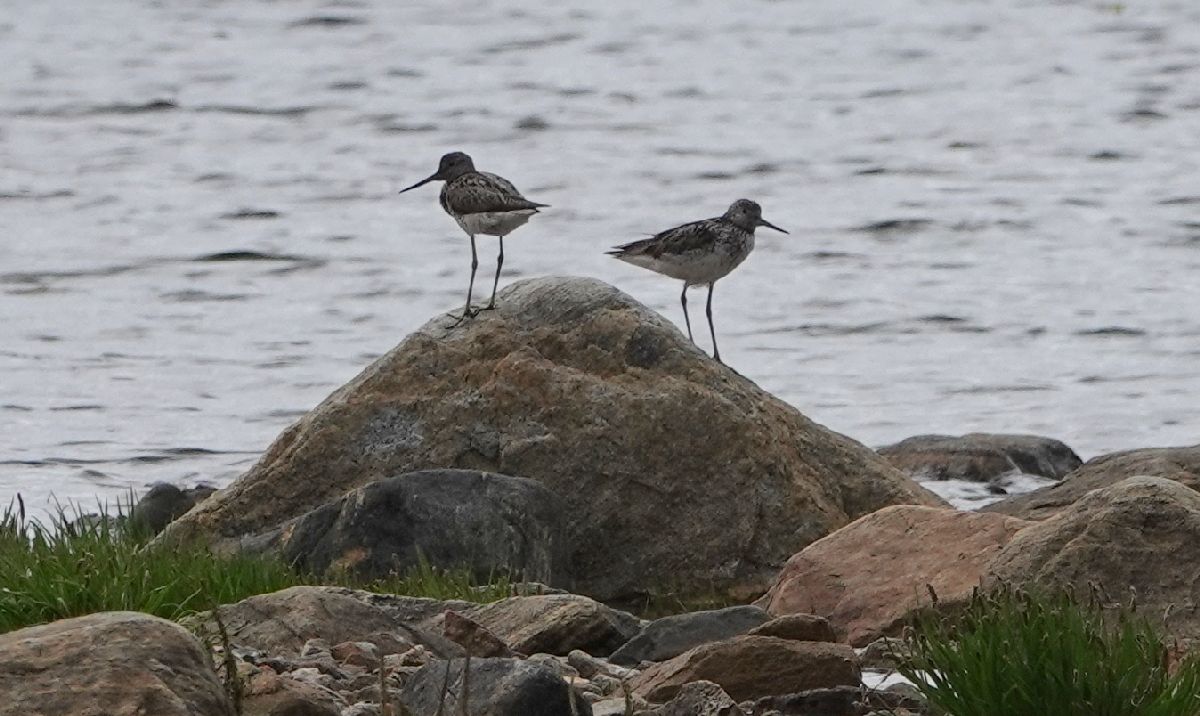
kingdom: Animalia
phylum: Chordata
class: Aves
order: Charadriiformes
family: Scolopacidae
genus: Tringa
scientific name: Tringa nebularia
